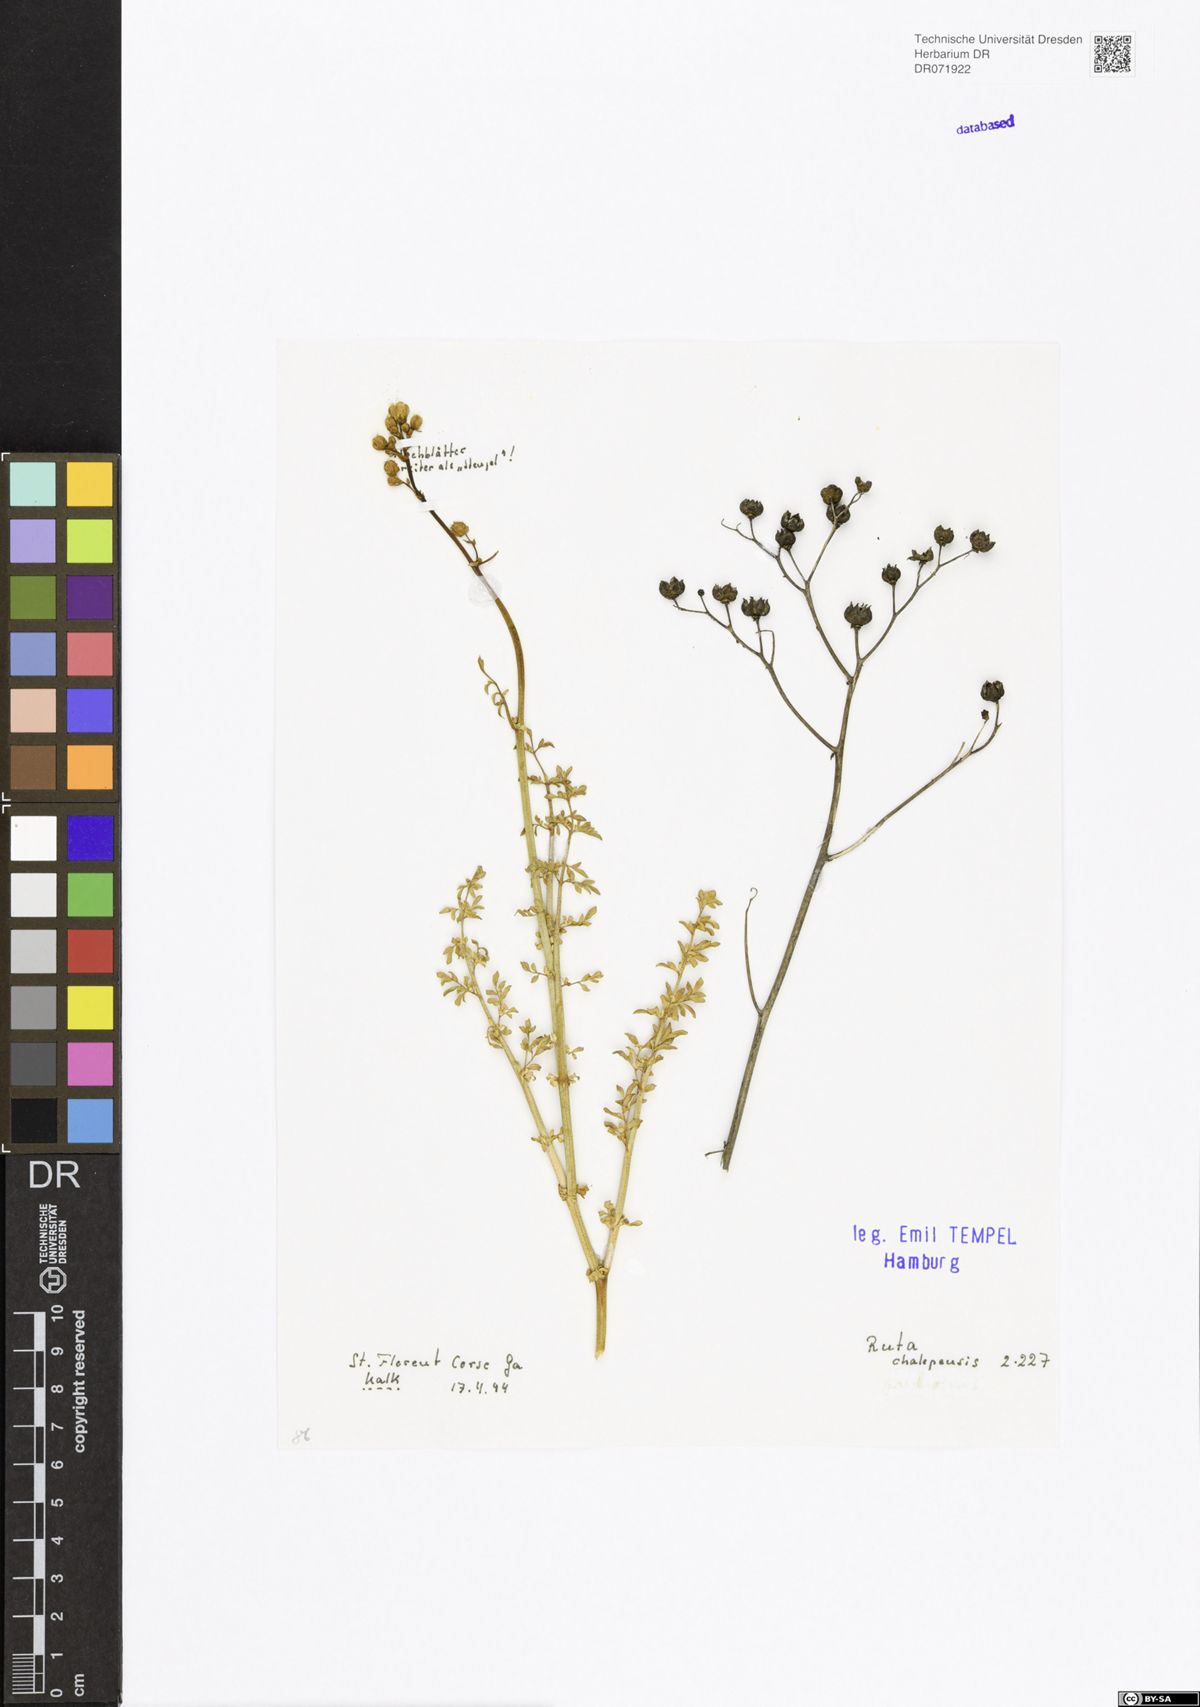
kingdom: Plantae
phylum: Tracheophyta
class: Magnoliopsida
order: Sapindales
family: Rutaceae
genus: Ruta
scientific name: Ruta chalepensis
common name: Fringed rue
